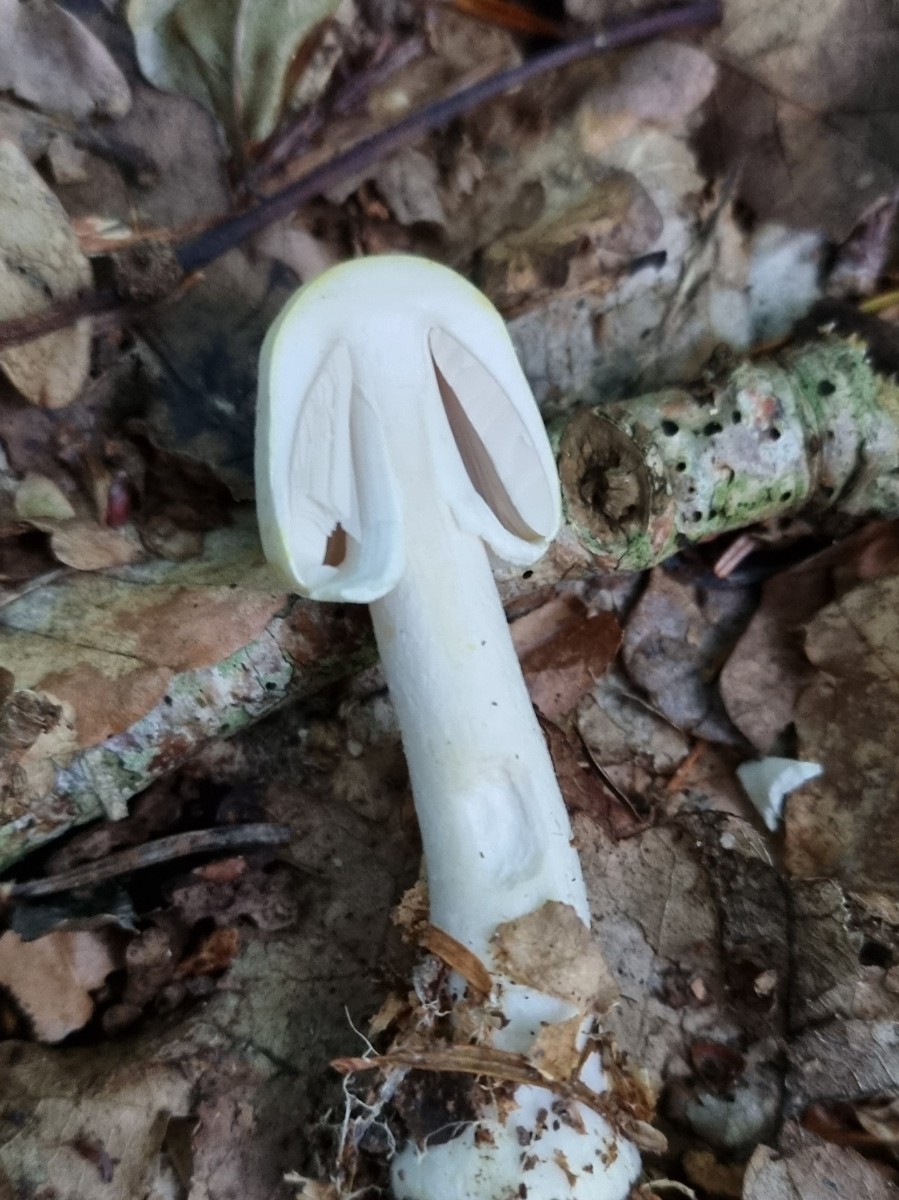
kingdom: Fungi
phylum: Basidiomycota
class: Agaricomycetes
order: Agaricales
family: Agaricaceae
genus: Agaricus
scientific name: Agaricus
